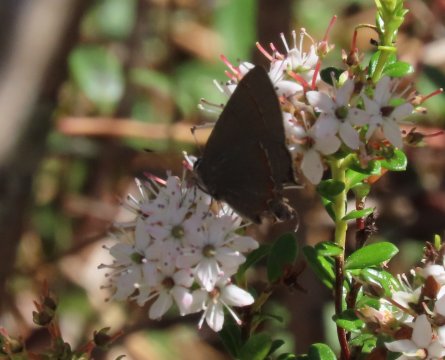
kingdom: Animalia
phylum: Arthropoda
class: Insecta
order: Lepidoptera
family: Lycaenidae
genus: Calycopis
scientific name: Calycopis cecrops
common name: Red-banded Hairstreak
